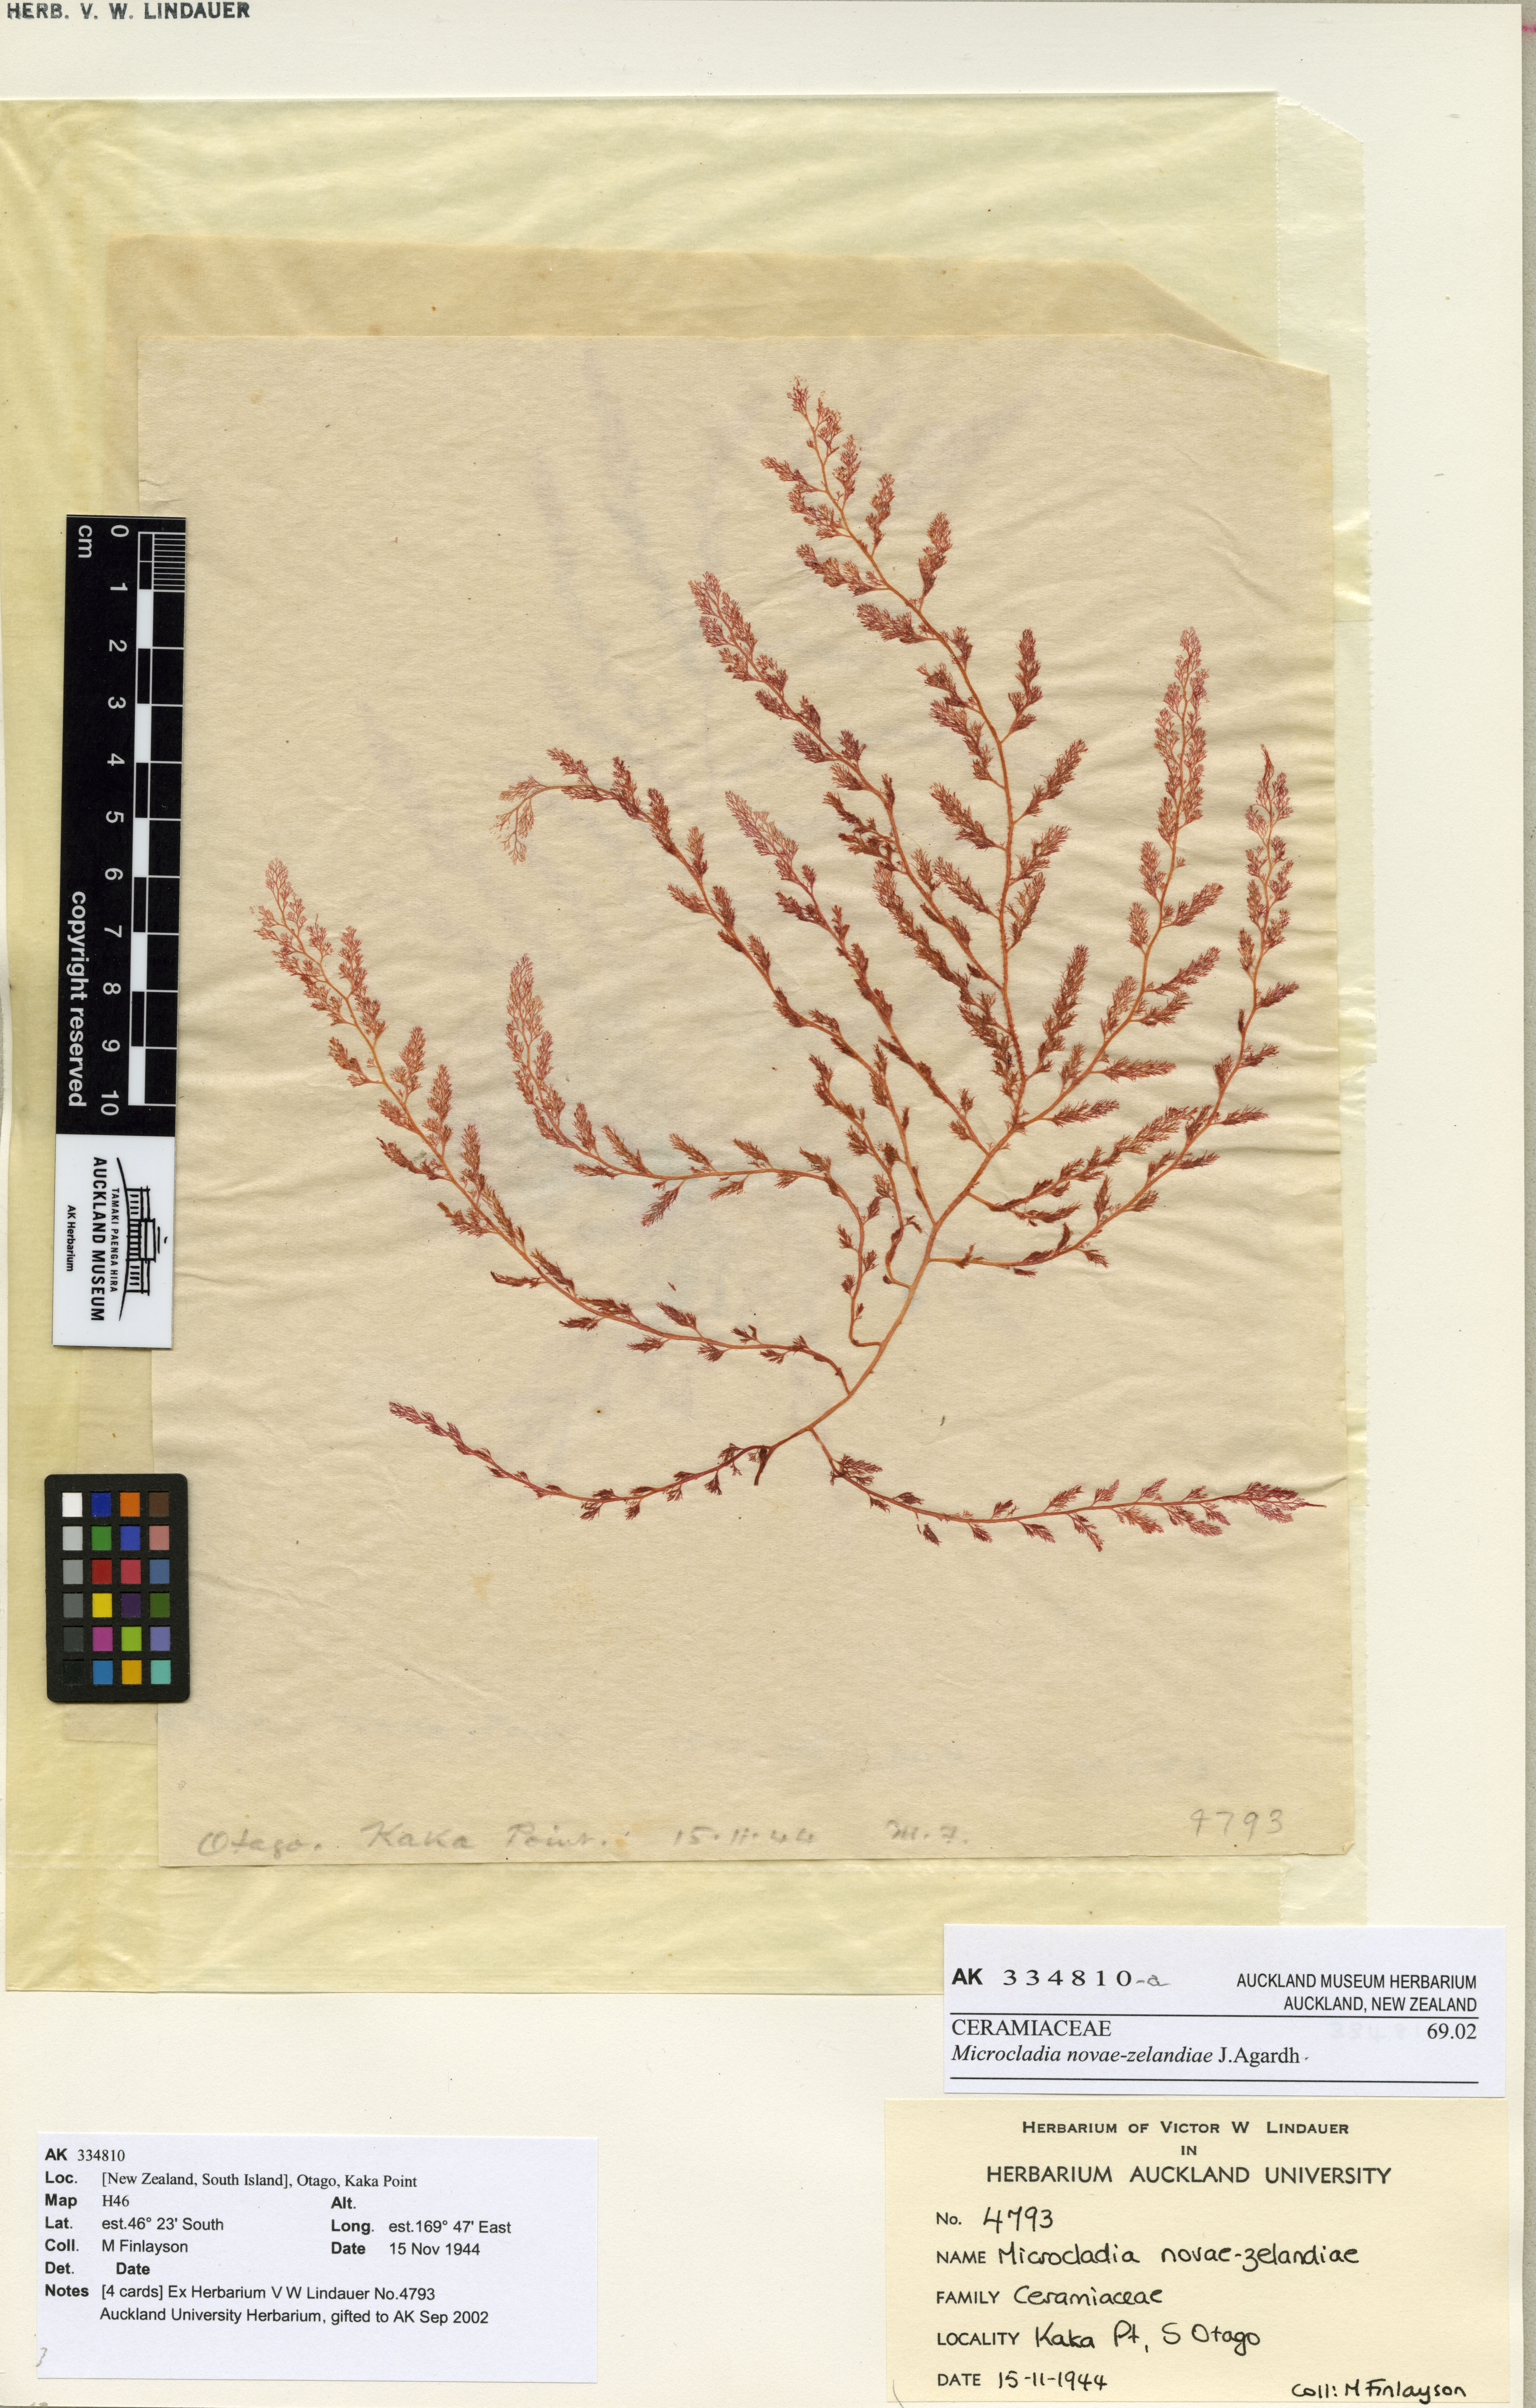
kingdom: Plantae
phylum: Rhodophyta
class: Florideophyceae
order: Ceramiales
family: Ceramiaceae
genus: Microcladia
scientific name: Microcladia novae-zelandiae
